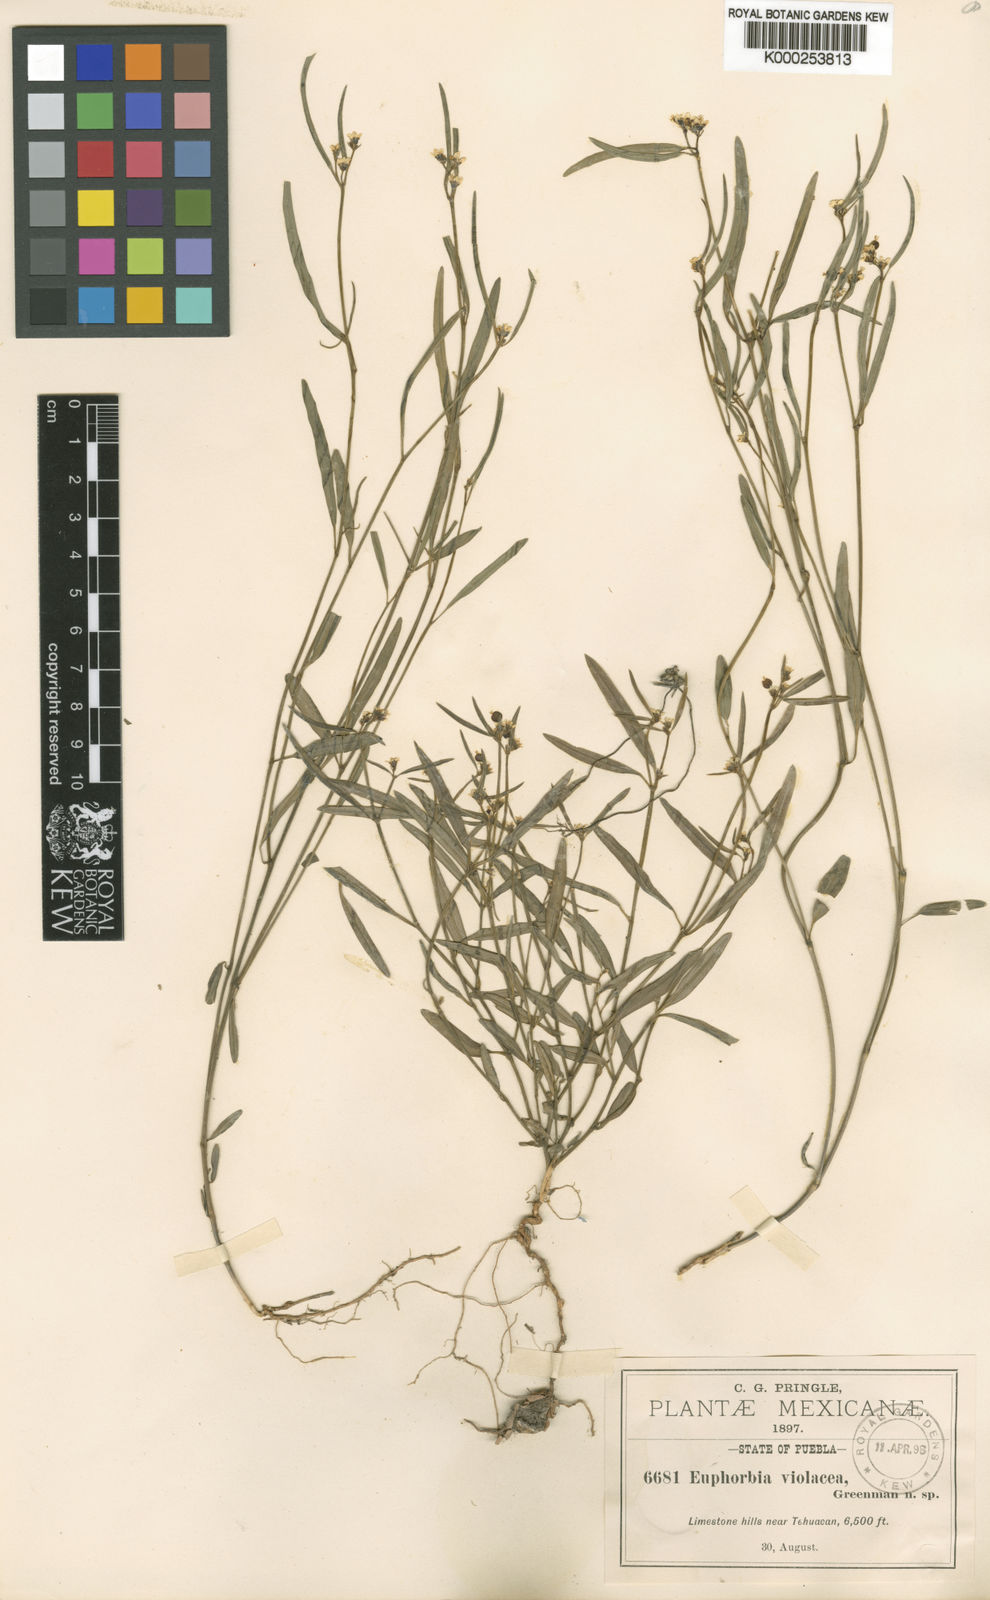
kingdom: Plantae
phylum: Tracheophyta
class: Magnoliopsida
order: Malpighiales
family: Euphorbiaceae
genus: Euphorbia
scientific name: Euphorbia violacea
